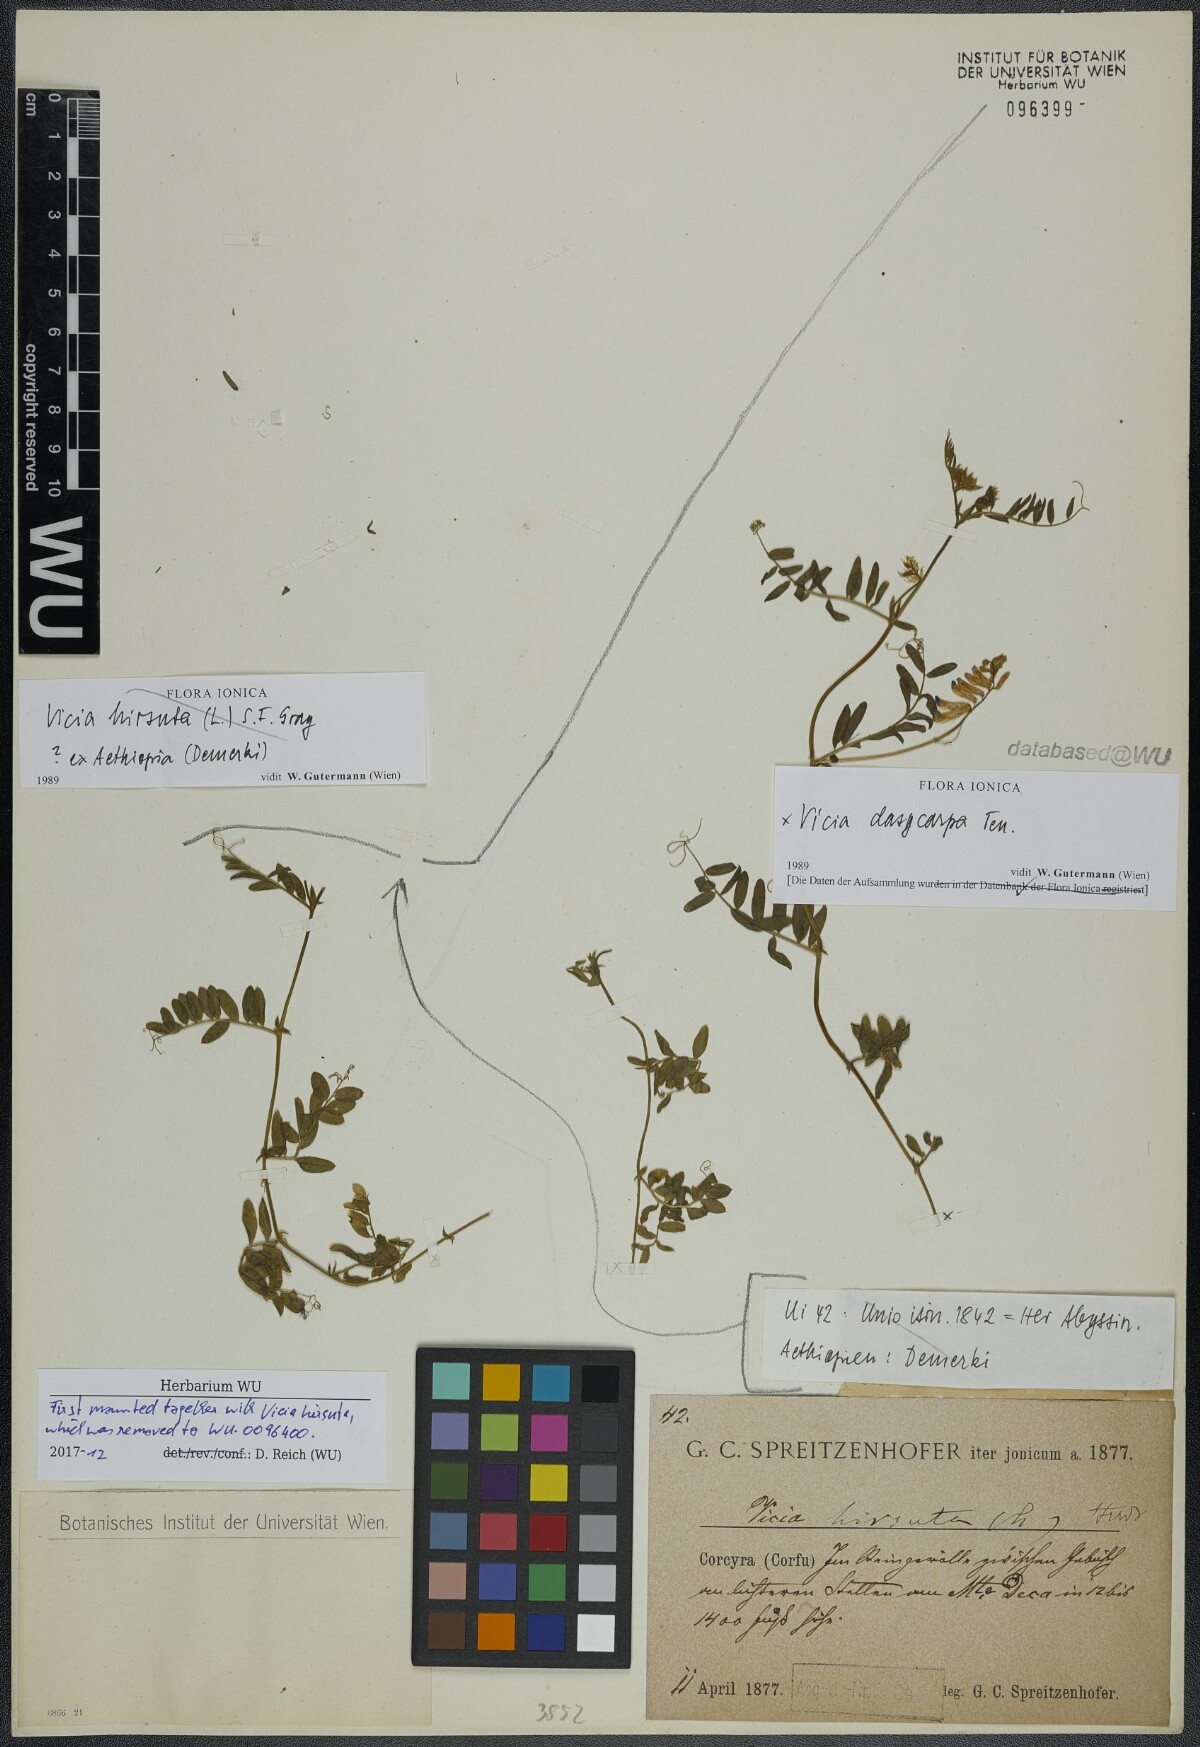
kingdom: Plantae
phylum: Tracheophyta
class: Magnoliopsida
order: Fabales
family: Fabaceae
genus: Vicia
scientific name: Vicia villosa
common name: Fodder vetch
